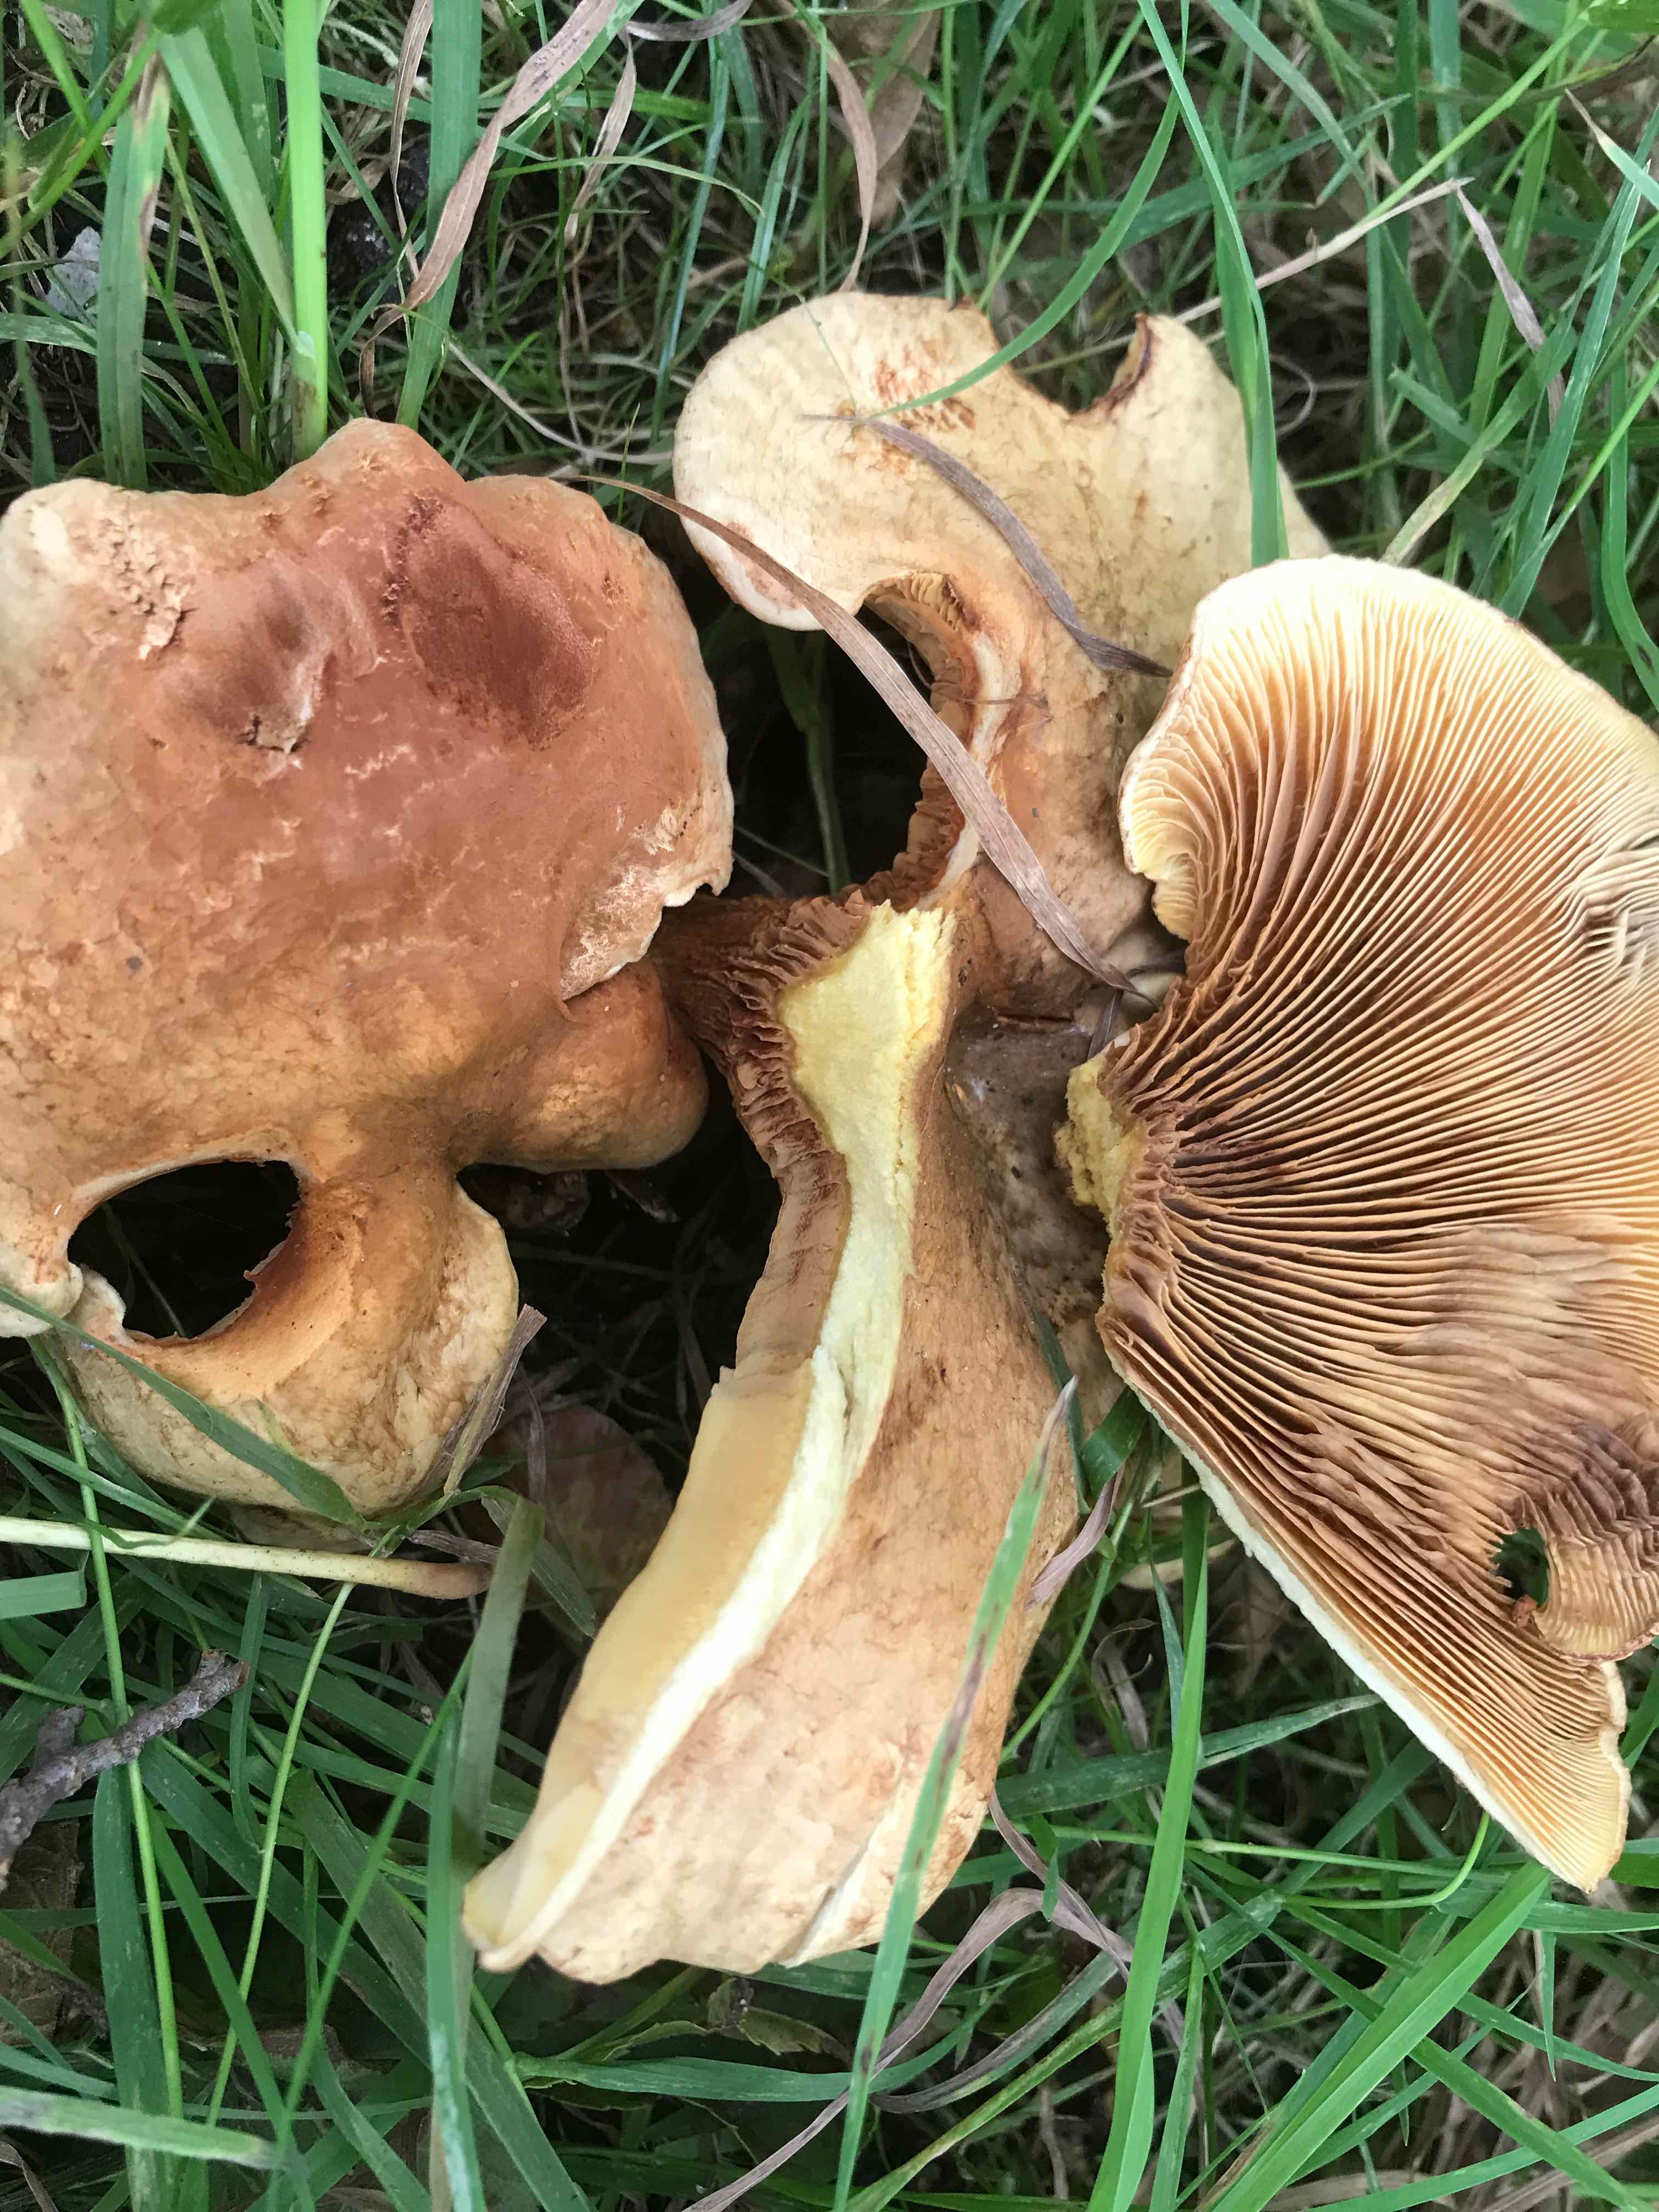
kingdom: Fungi
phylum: Basidiomycota
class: Agaricomycetes
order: Boletales
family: Paxillaceae
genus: Paxillus
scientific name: Paxillus rubicundulus
